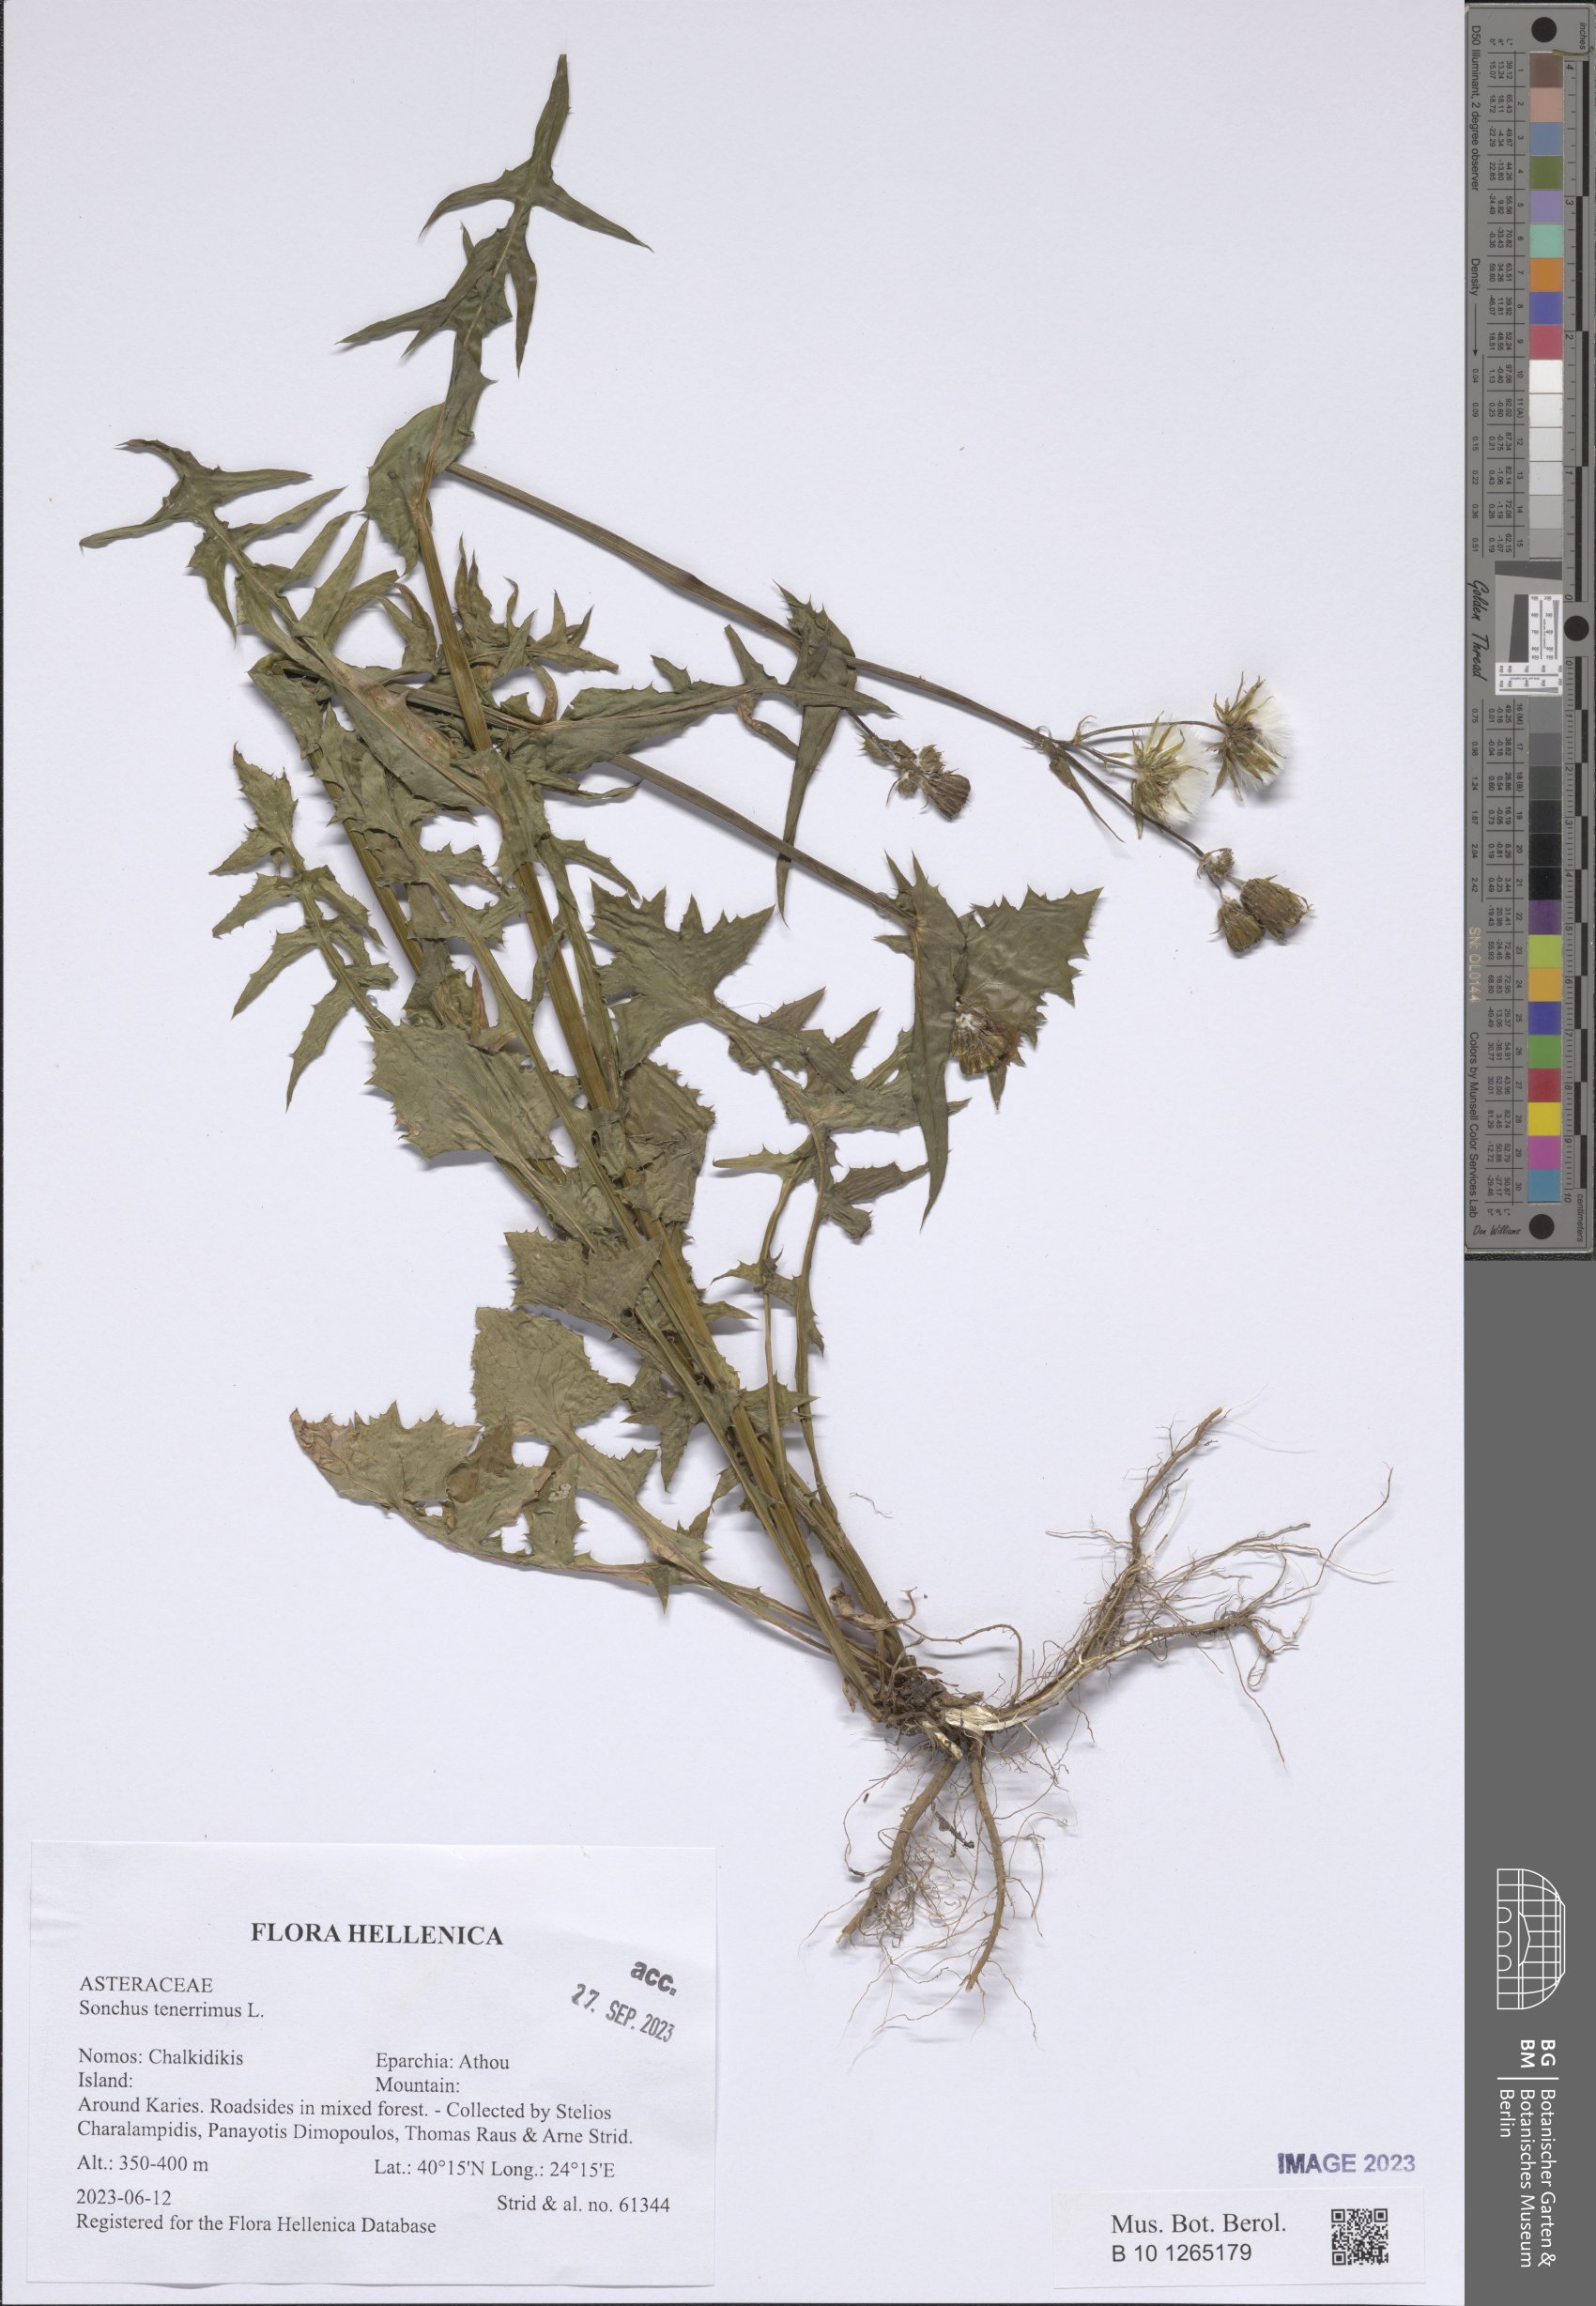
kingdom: Plantae
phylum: Tracheophyta
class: Magnoliopsida
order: Asterales
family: Asteraceae
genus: Sonchus
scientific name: Sonchus tenerrimus
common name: Clammy sowthistle
